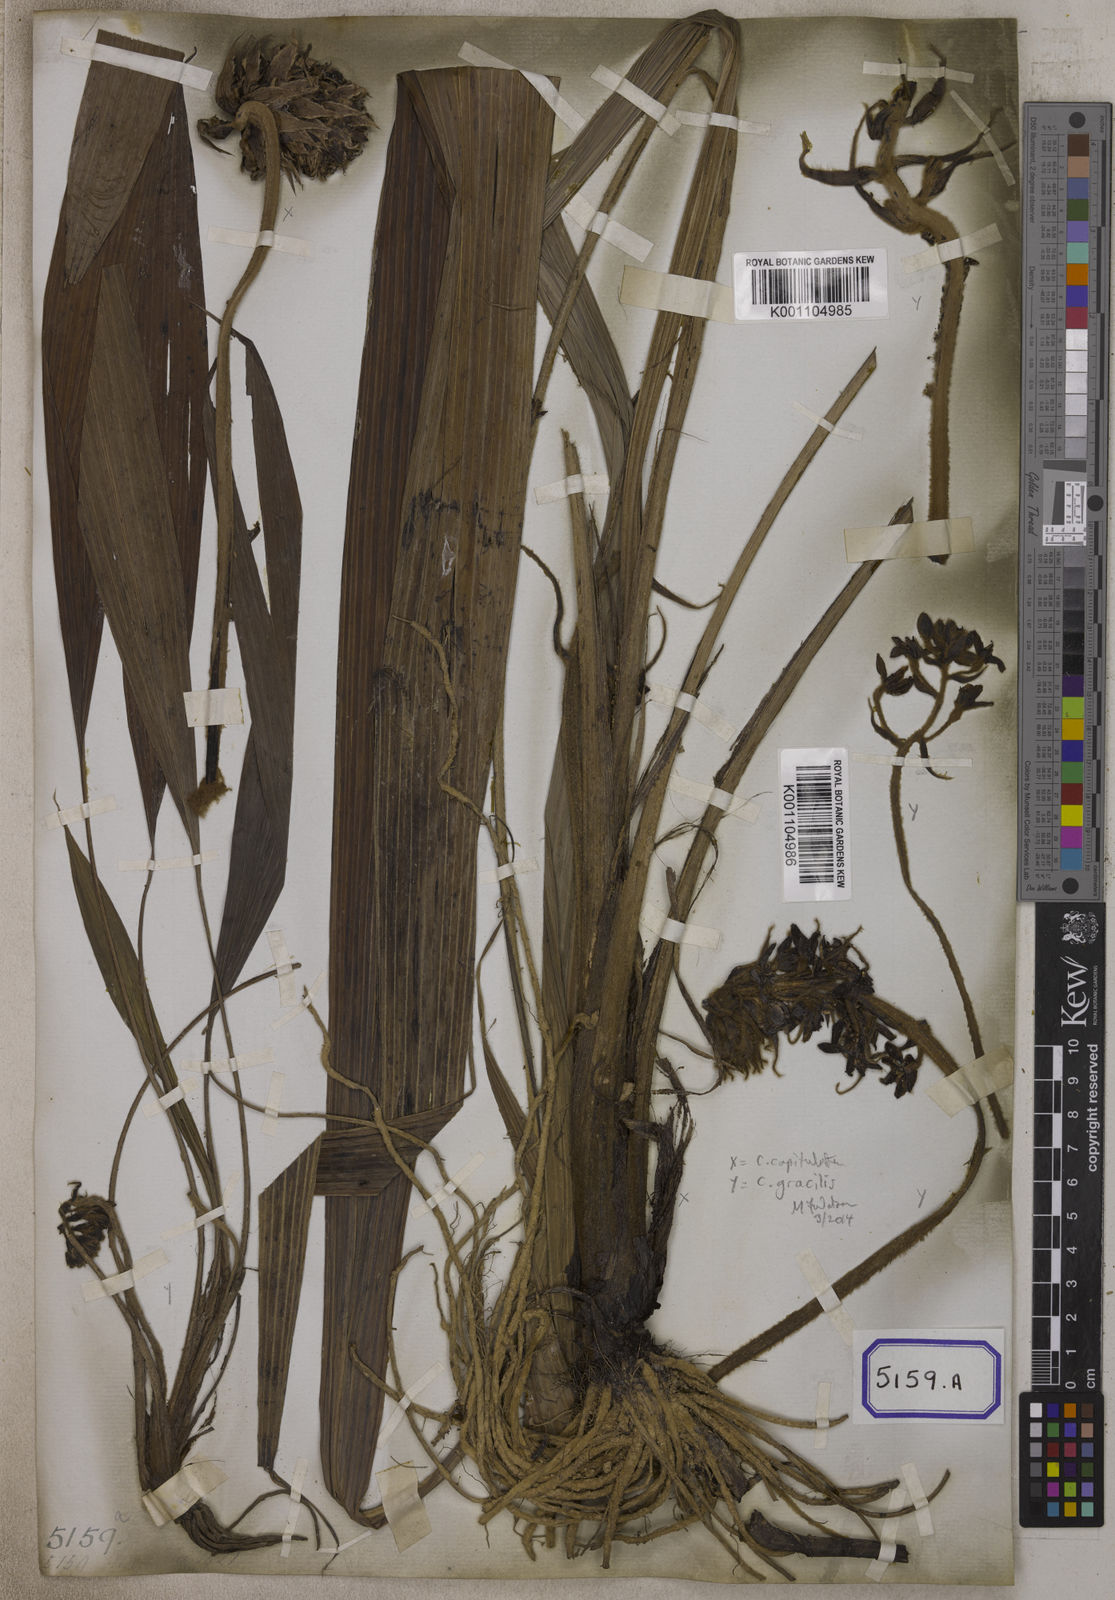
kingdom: Plantae
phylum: Tracheophyta
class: Liliopsida
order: Asparagales
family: Hypoxidaceae
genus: Curculigo
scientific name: Curculigo capitulata
